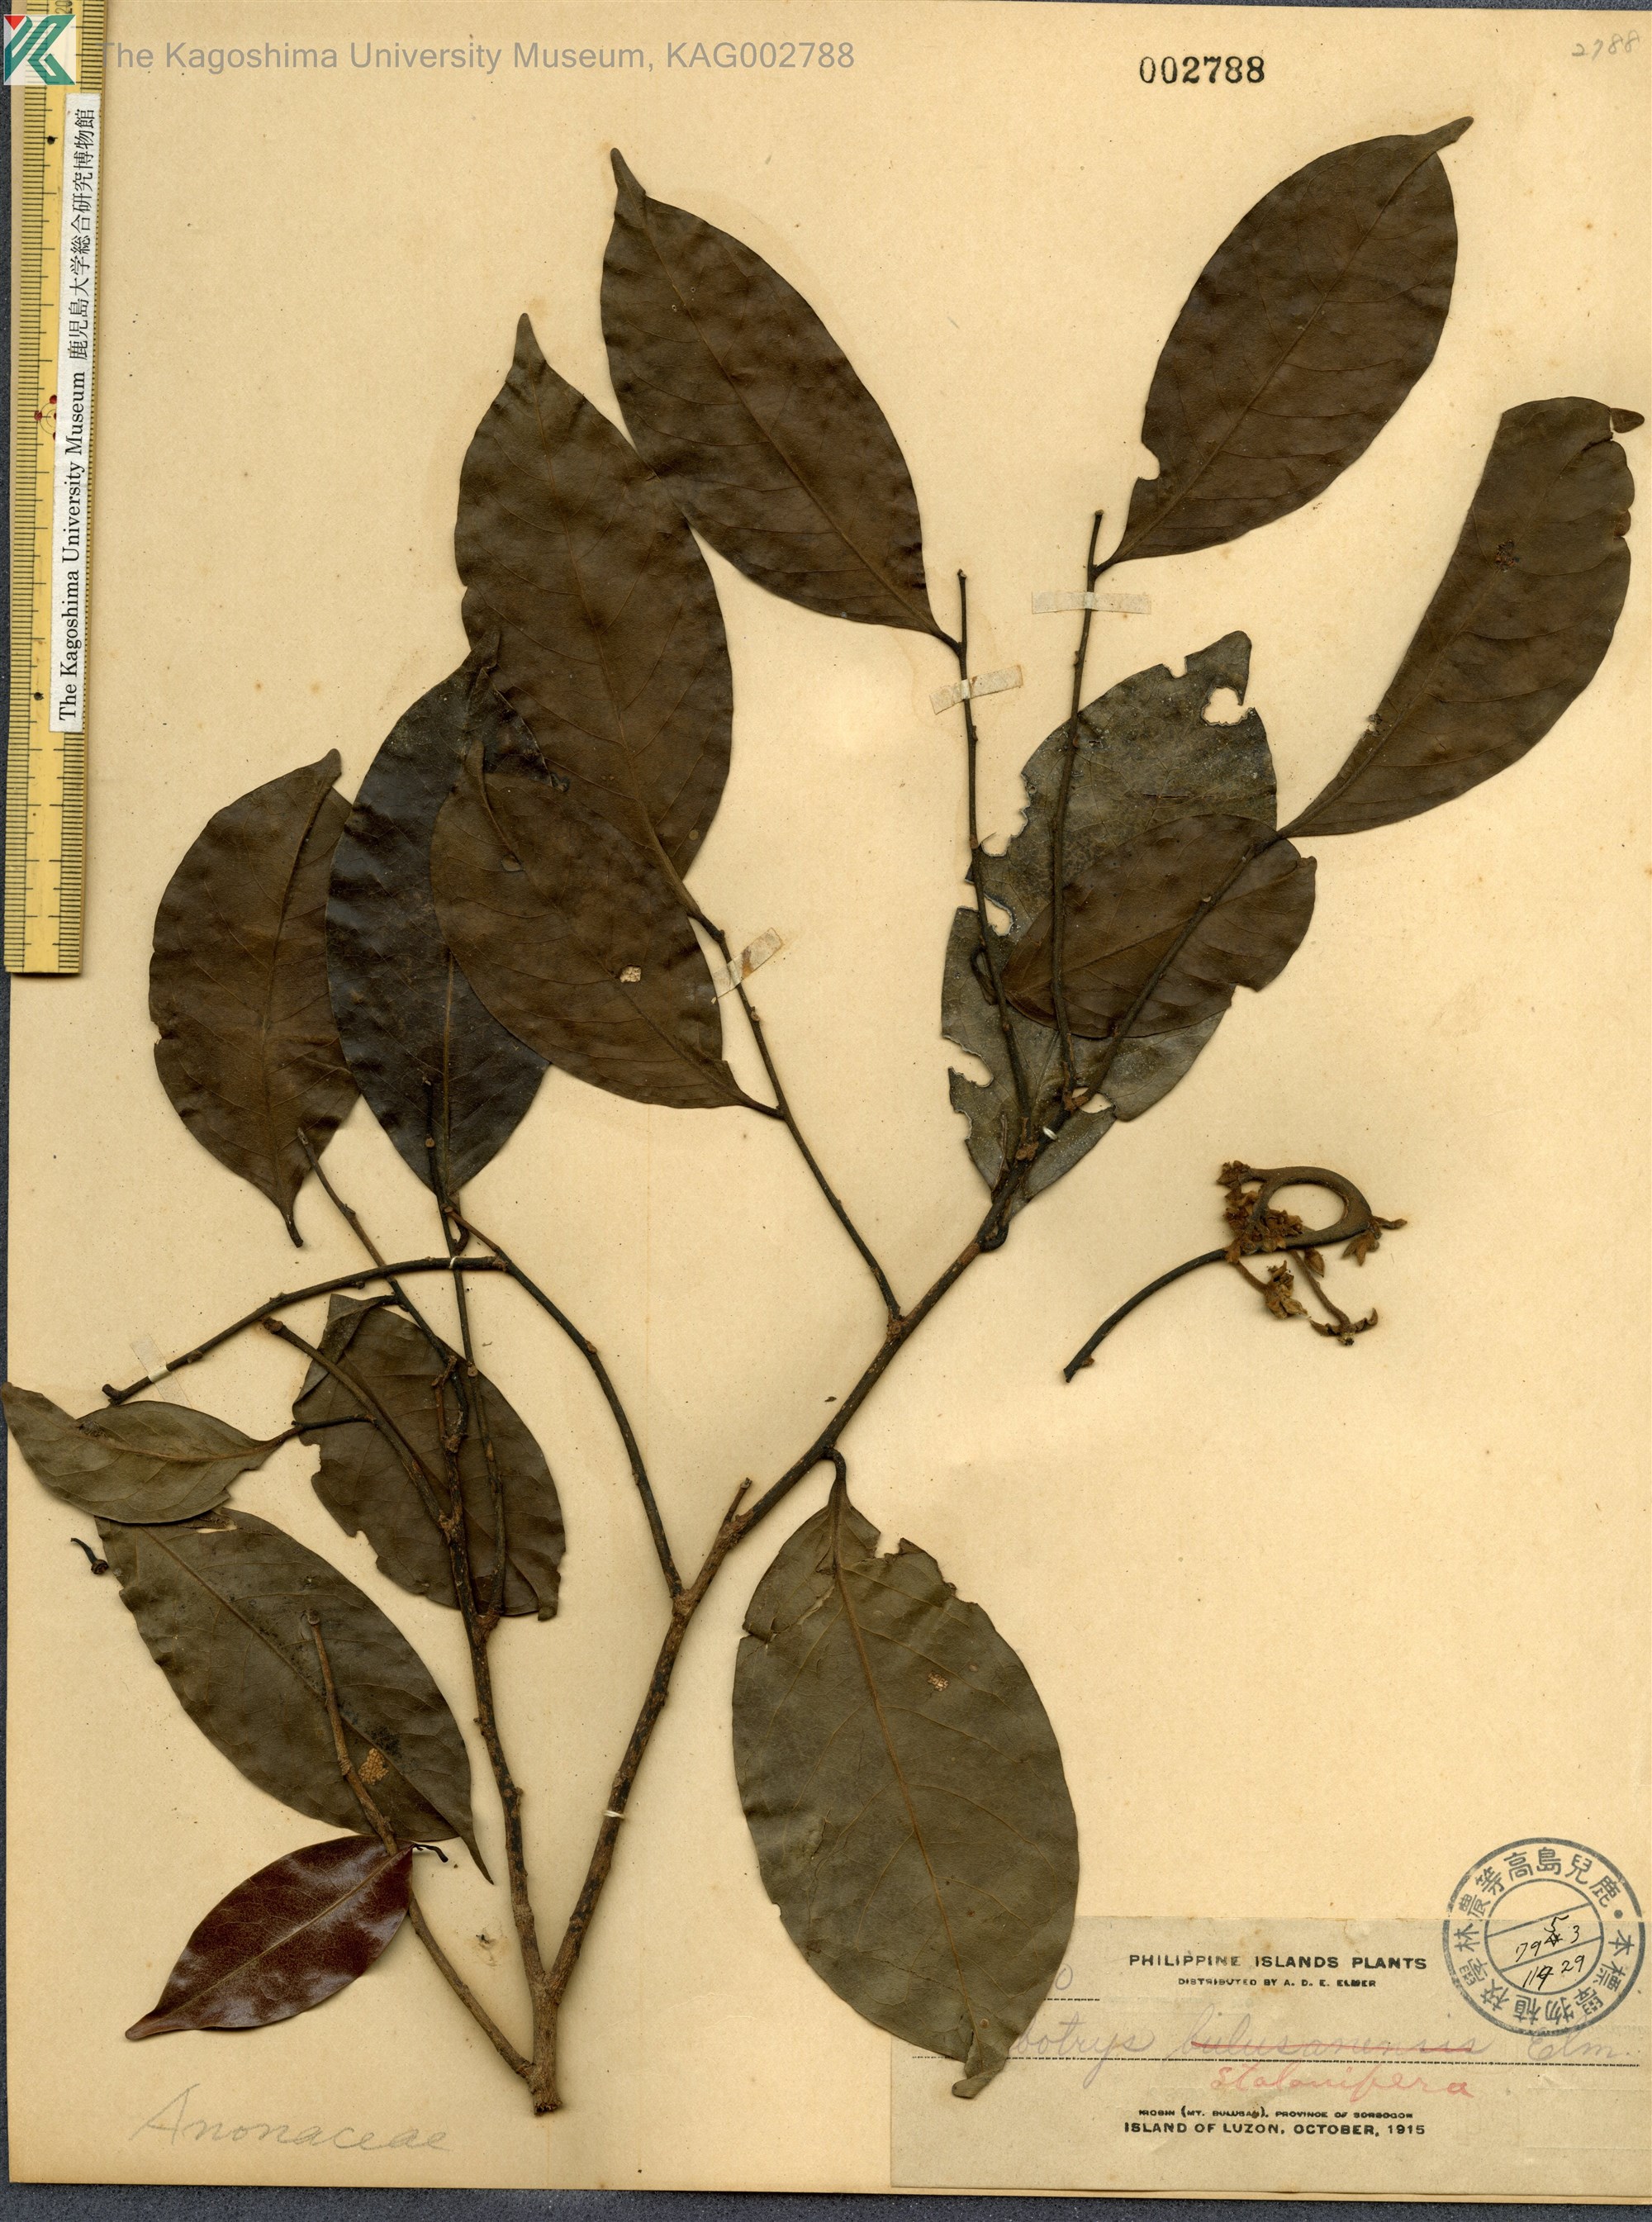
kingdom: Plantae
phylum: Tracheophyta
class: Magnoliopsida
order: Magnoliales
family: Annonaceae
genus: Artabotrys
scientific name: Artabotrys stolonifera
